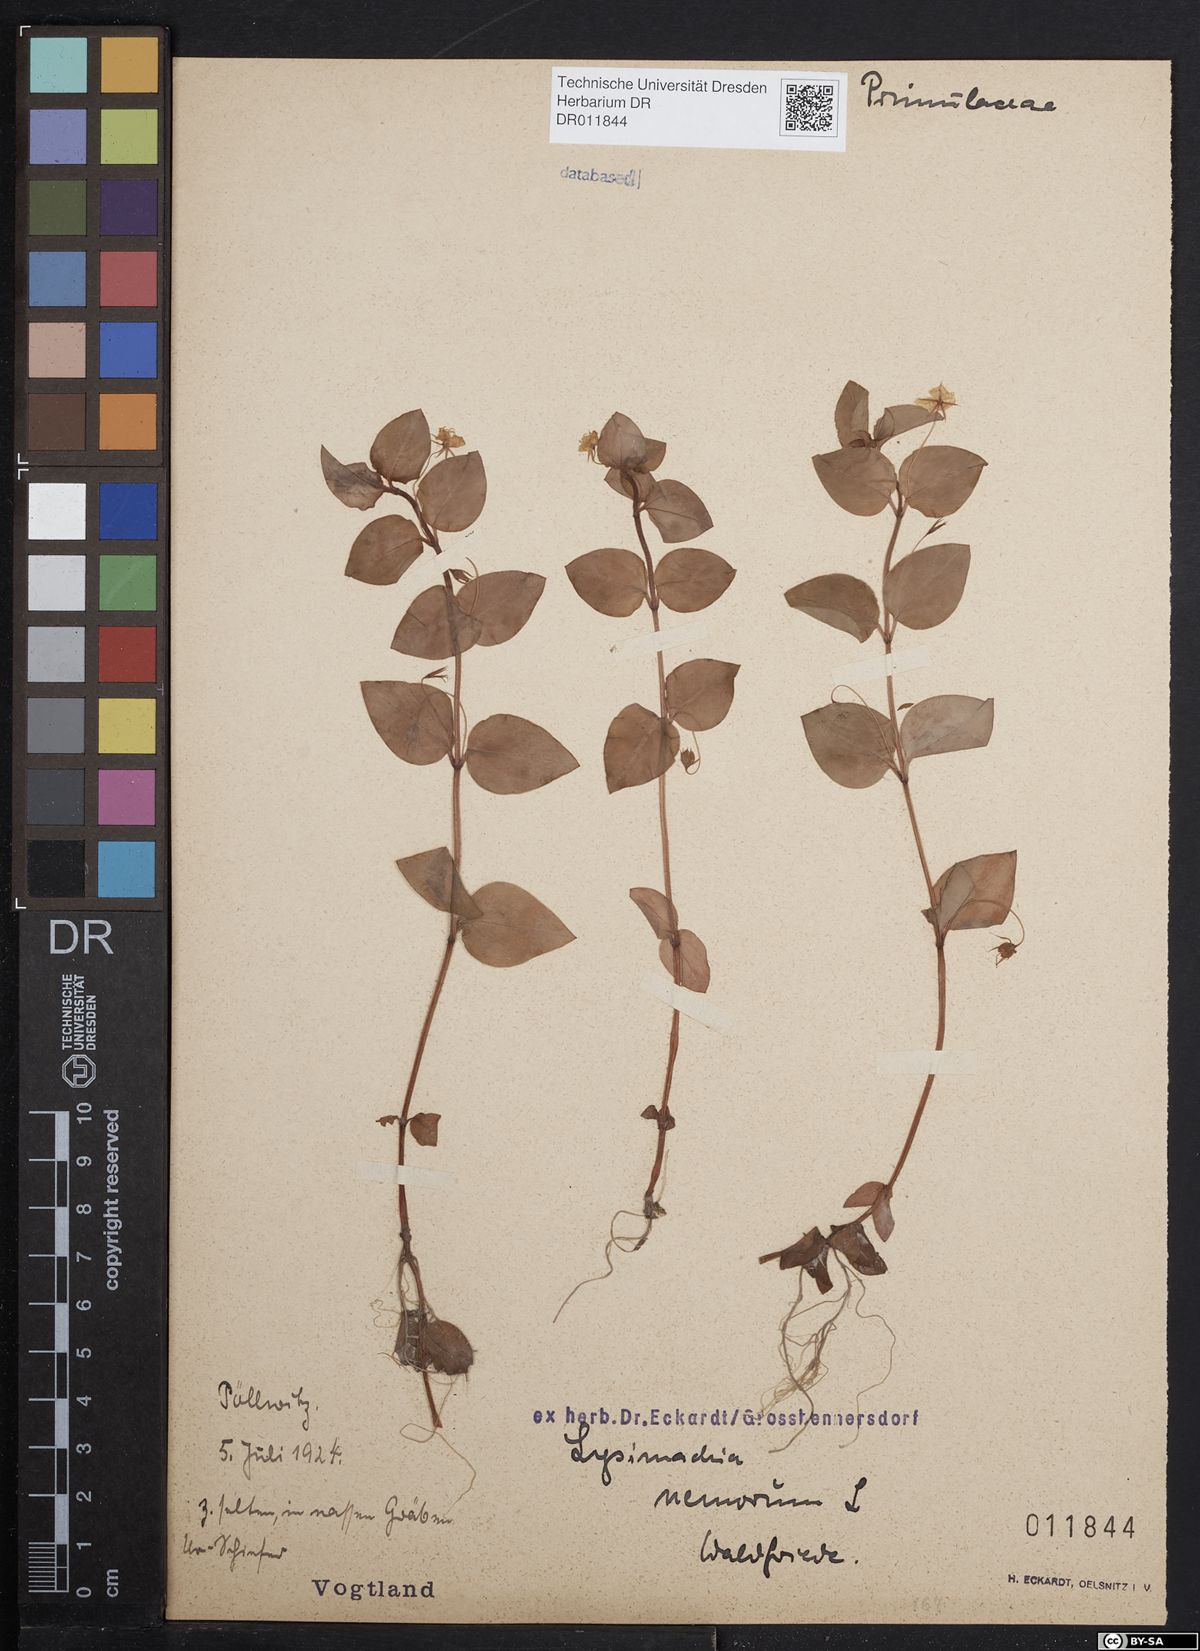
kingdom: Plantae
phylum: Tracheophyta
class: Magnoliopsida
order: Ericales
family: Primulaceae
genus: Lysimachia
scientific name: Lysimachia nemorum
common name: Yellow pimpernel
